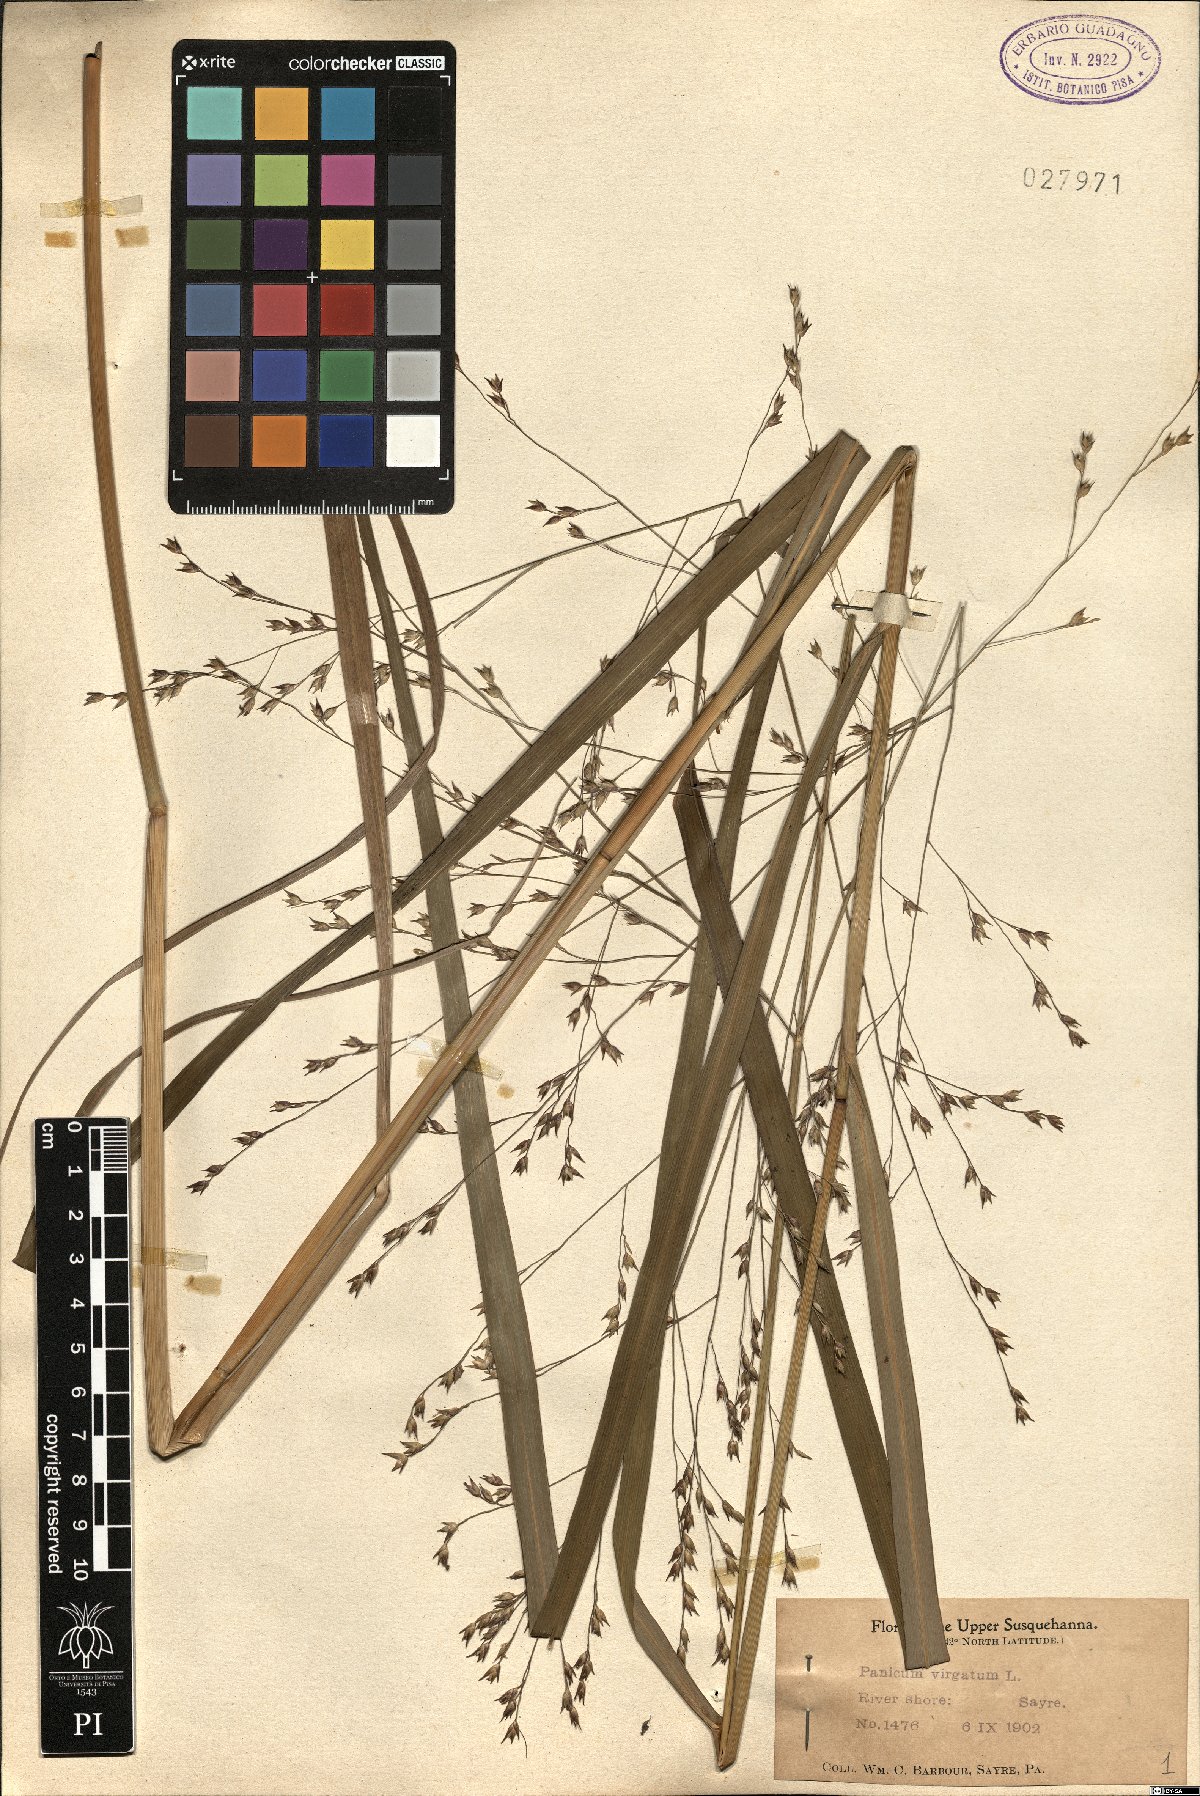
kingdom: Plantae
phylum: Tracheophyta
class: Liliopsida
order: Poales
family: Poaceae
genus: Panicum
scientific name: Panicum virgatum
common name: Switchgrass
